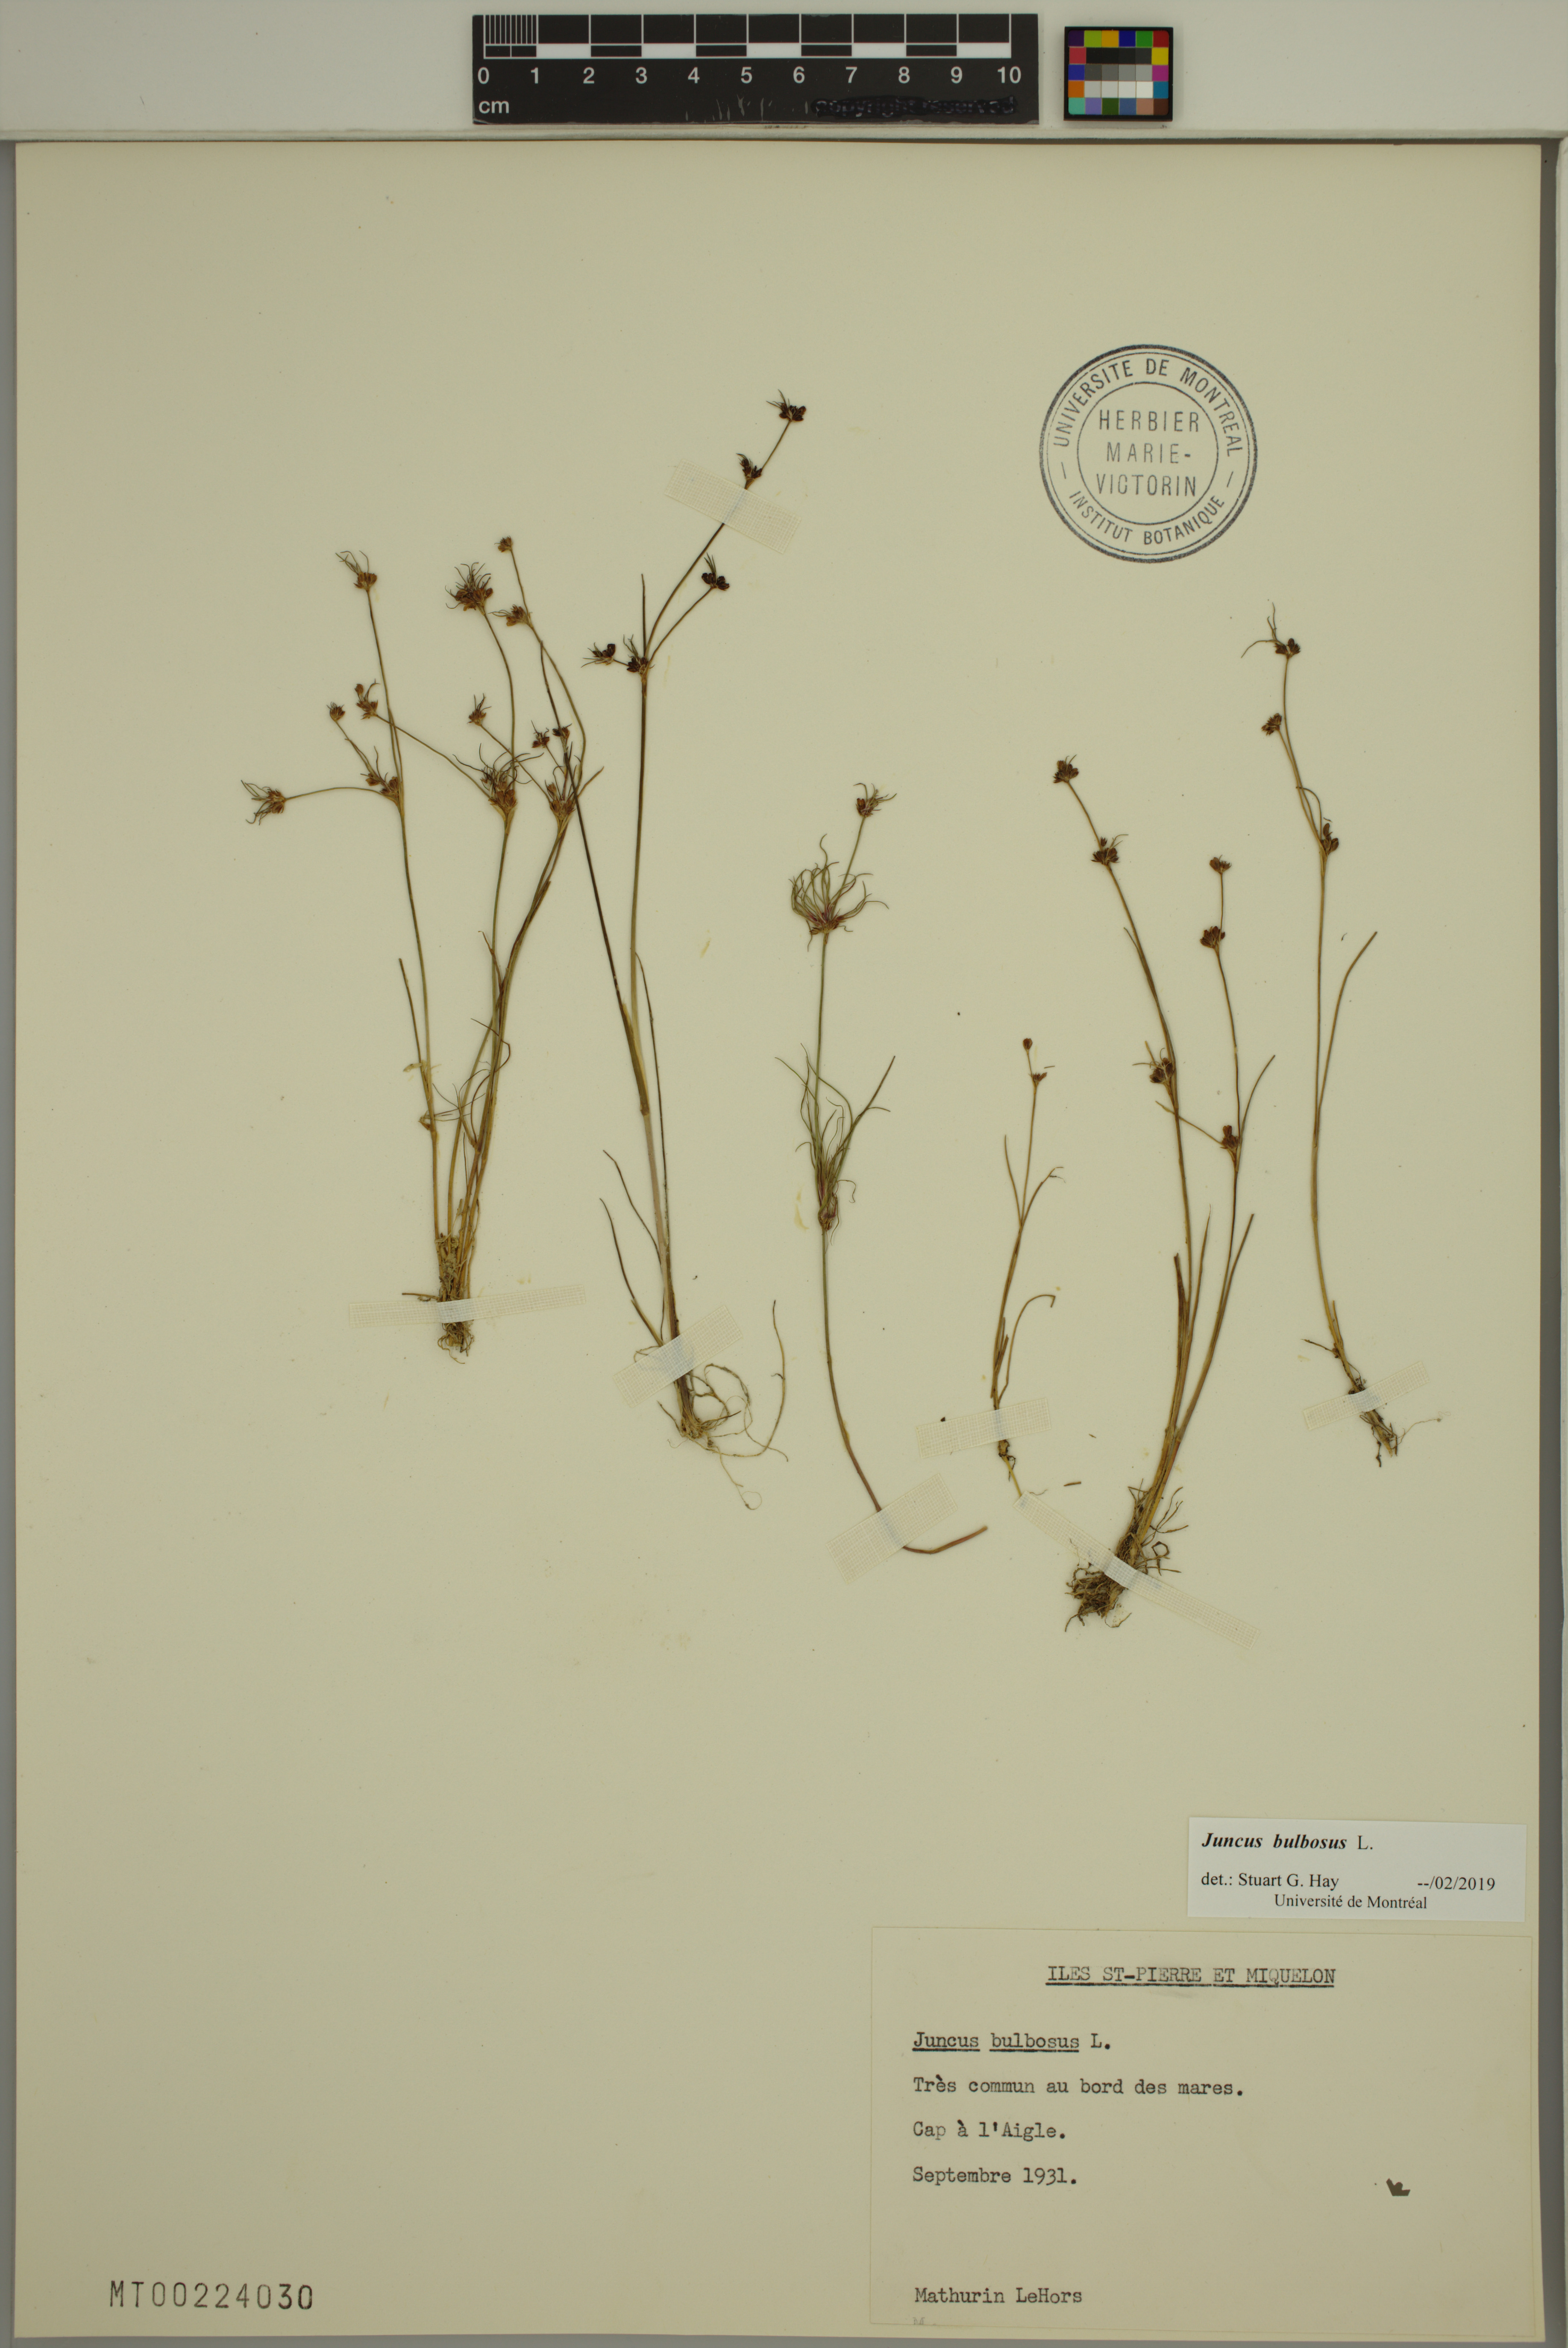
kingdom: Plantae
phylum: Tracheophyta
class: Liliopsida
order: Poales
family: Juncaceae
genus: Juncus
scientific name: Juncus bulbosus
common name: Bulbous rush
